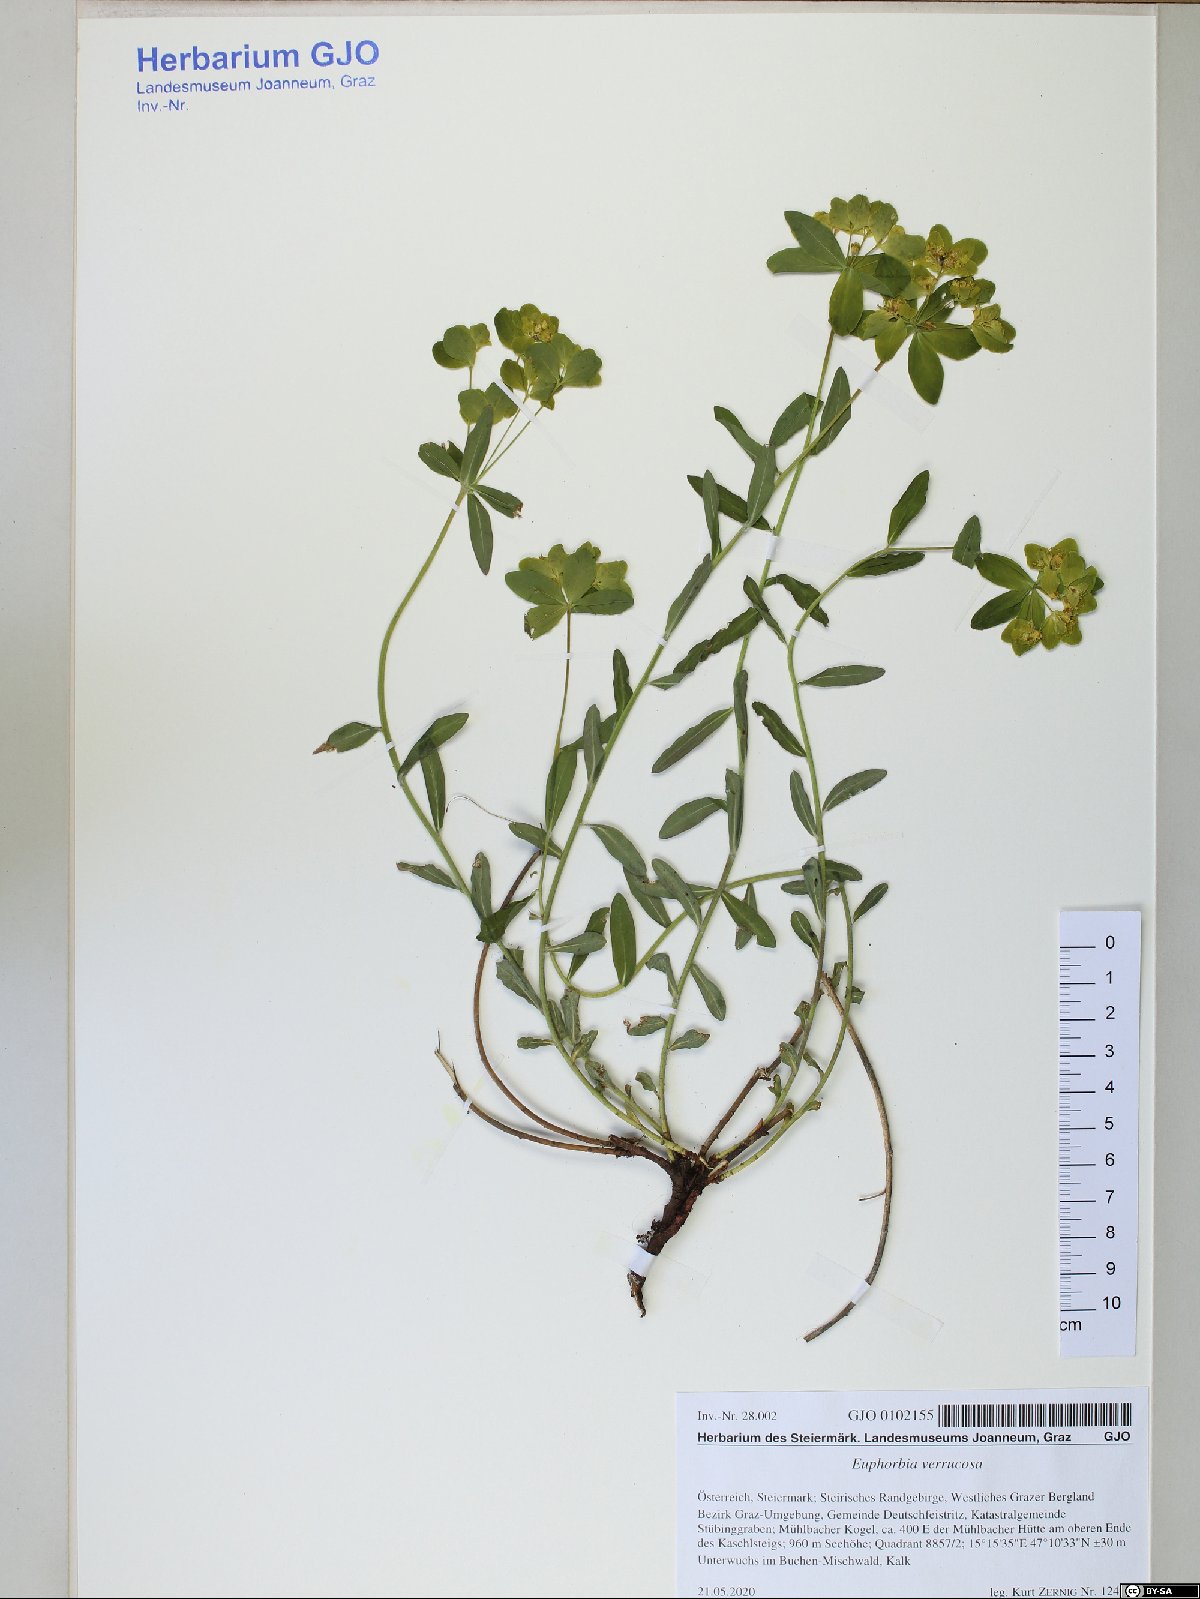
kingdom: Plantae
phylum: Tracheophyta
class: Magnoliopsida
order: Malpighiales
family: Euphorbiaceae
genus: Euphorbia
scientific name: Euphorbia verrucosa
